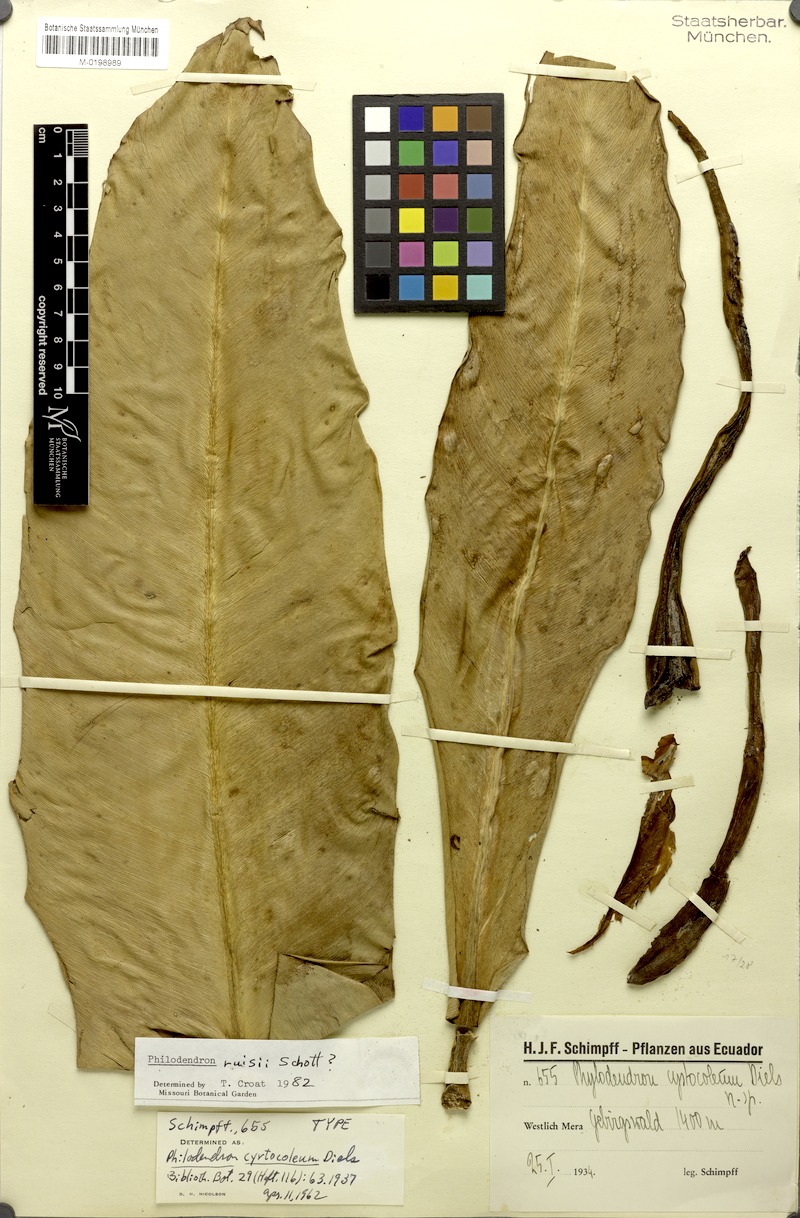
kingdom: Plantae
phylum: Tracheophyta
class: Liliopsida
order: Alismatales
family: Araceae
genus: Philodendron
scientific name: Philodendron ruizii
